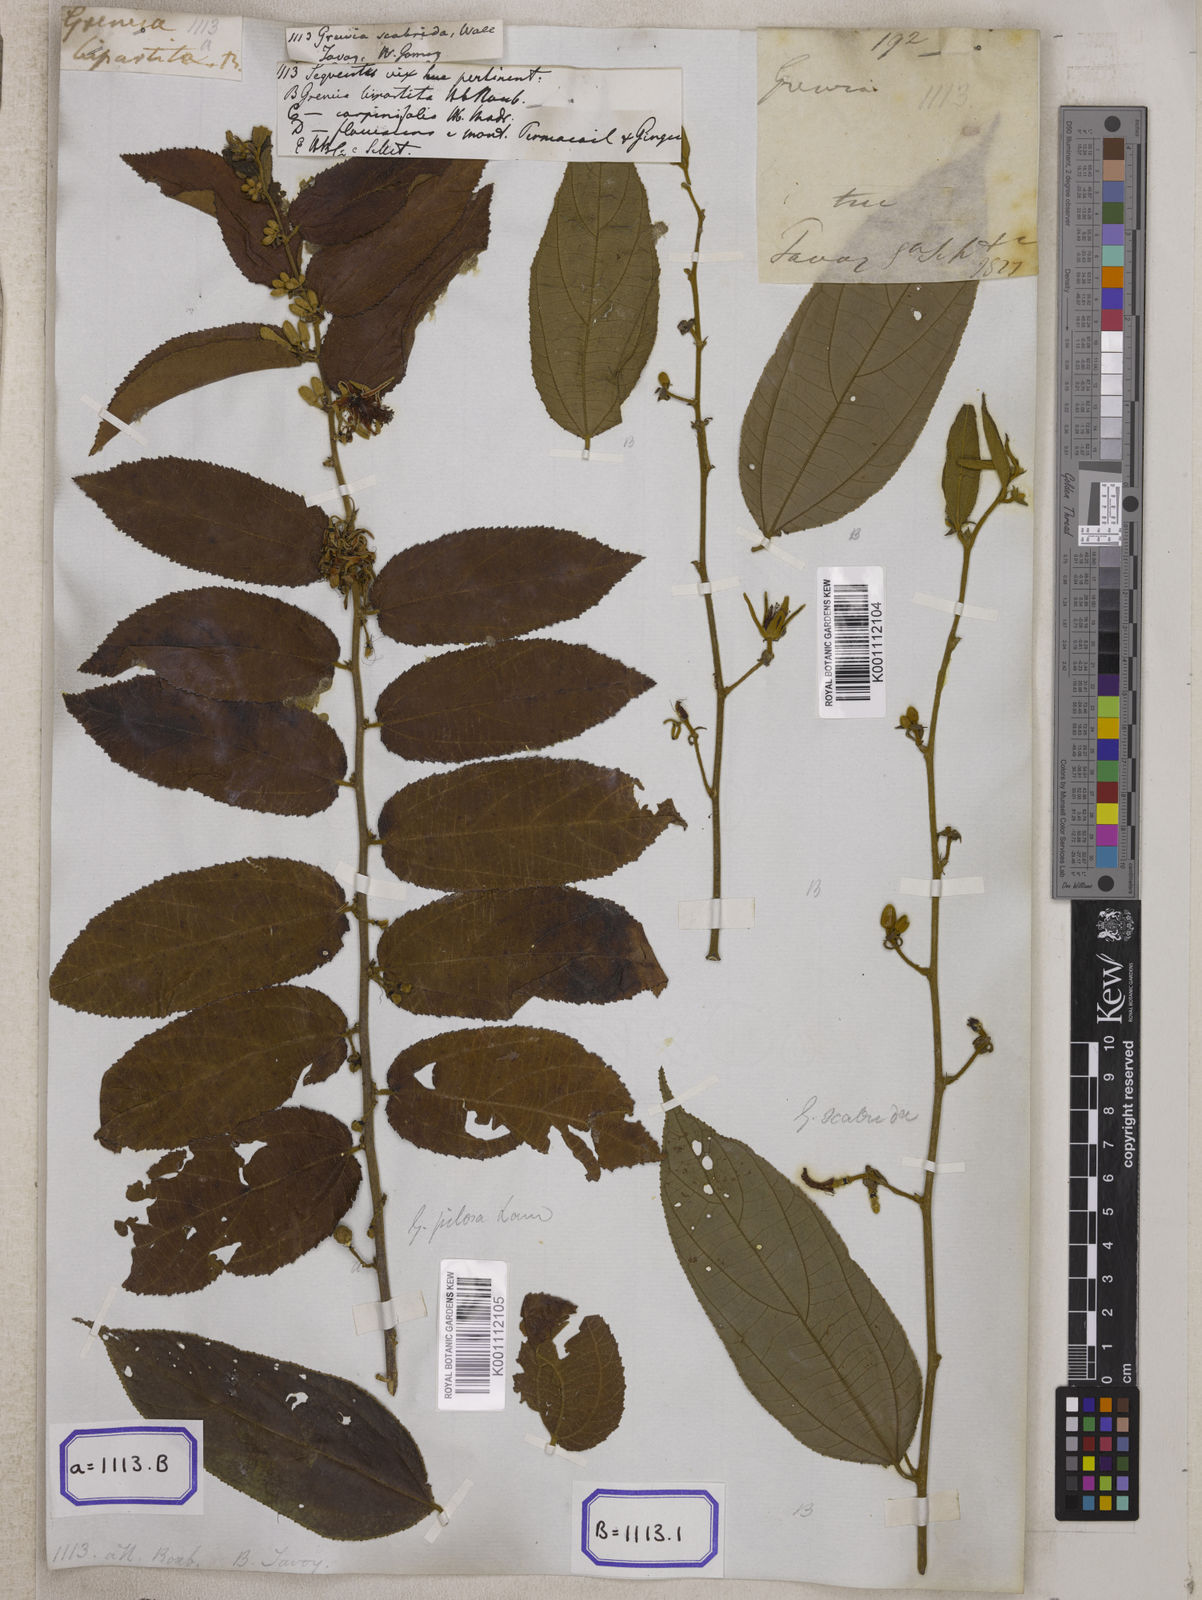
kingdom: Plantae
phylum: Tracheophyta
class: Magnoliopsida
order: Malvales
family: Malvaceae
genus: Grewia
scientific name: Grewia
